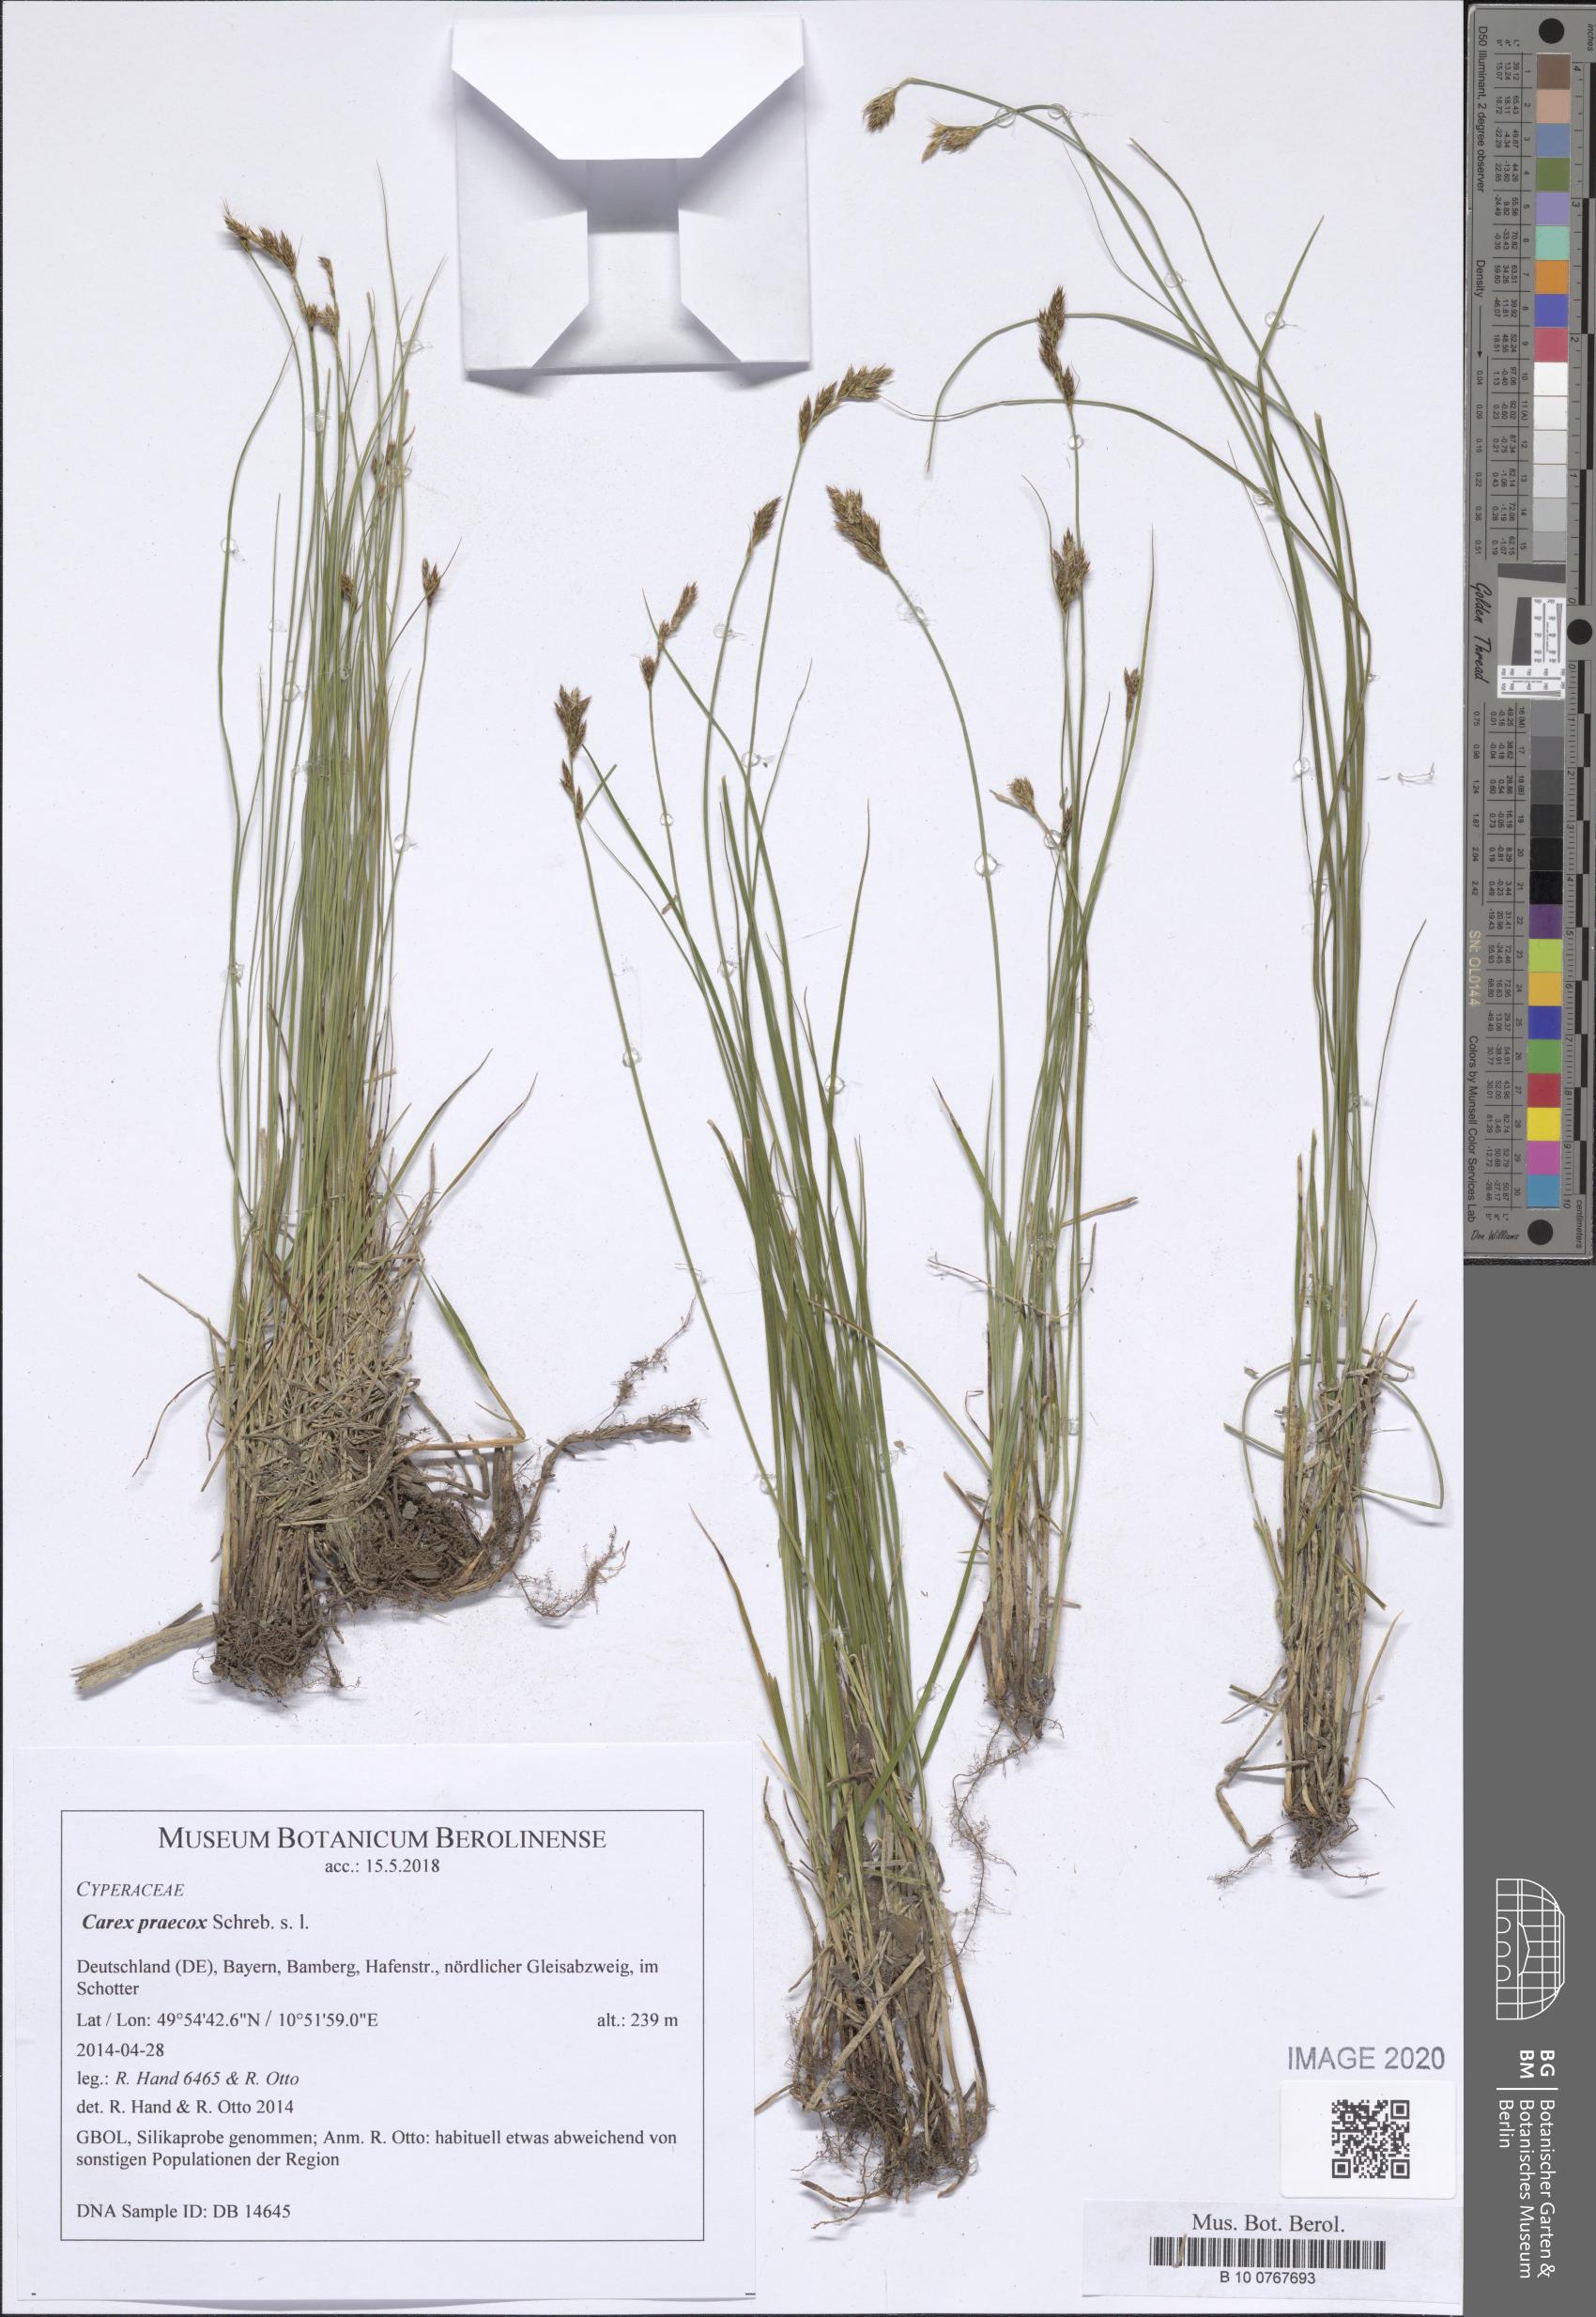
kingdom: Plantae
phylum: Tracheophyta
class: Liliopsida
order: Poales
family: Cyperaceae
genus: Carex
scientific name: Carex praecox
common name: Early sedge
